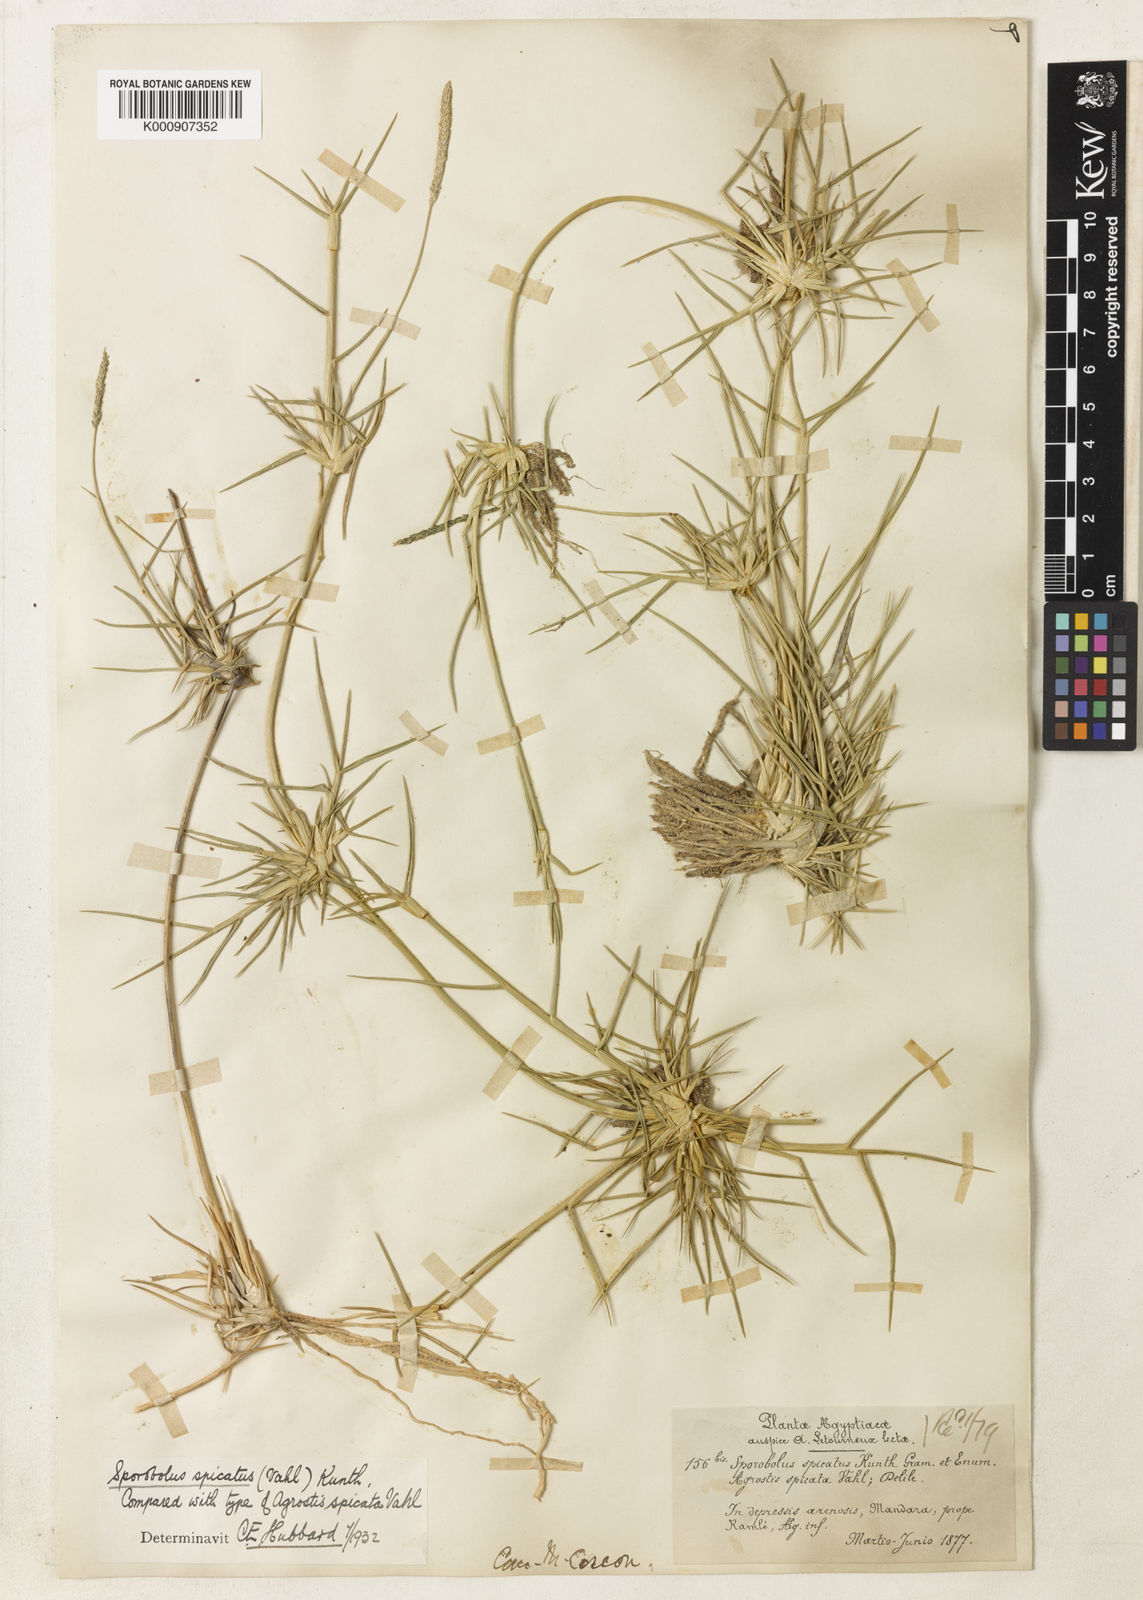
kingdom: Plantae
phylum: Tracheophyta
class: Liliopsida
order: Poales
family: Poaceae
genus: Sporobolus
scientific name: Sporobolus spicatus
